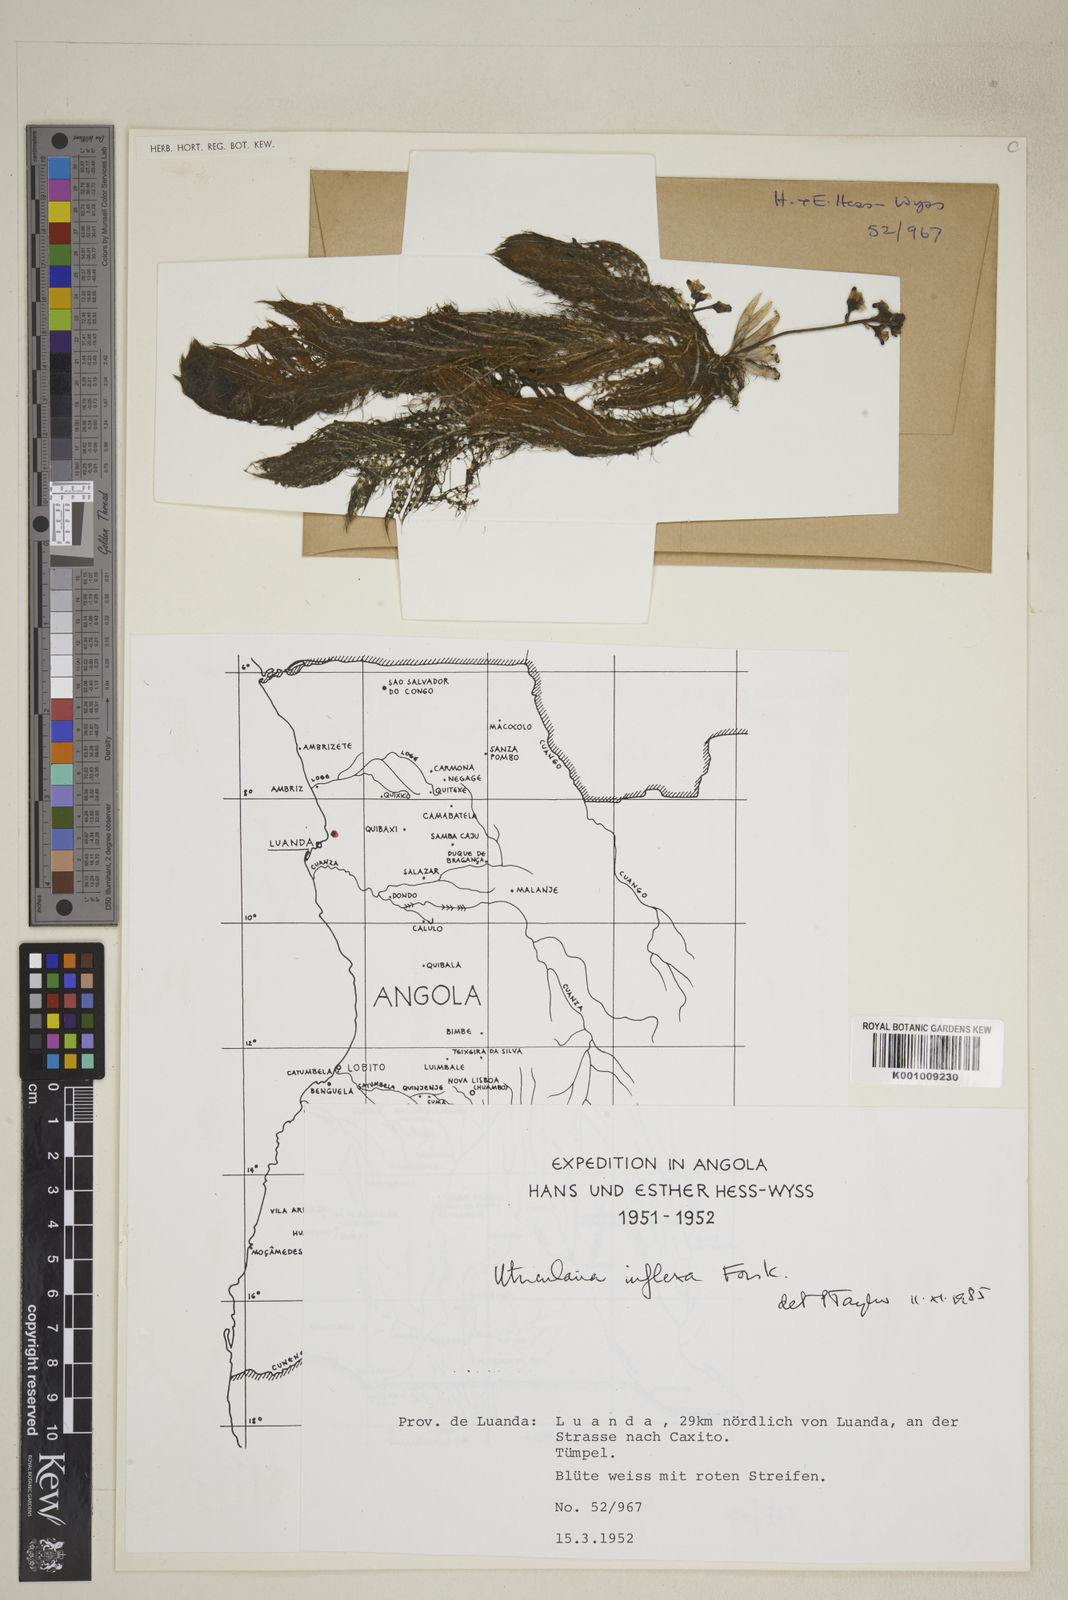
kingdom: Plantae
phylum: Tracheophyta
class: Magnoliopsida
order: Lamiales
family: Lentibulariaceae
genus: Utricularia
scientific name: Utricularia inflexa
